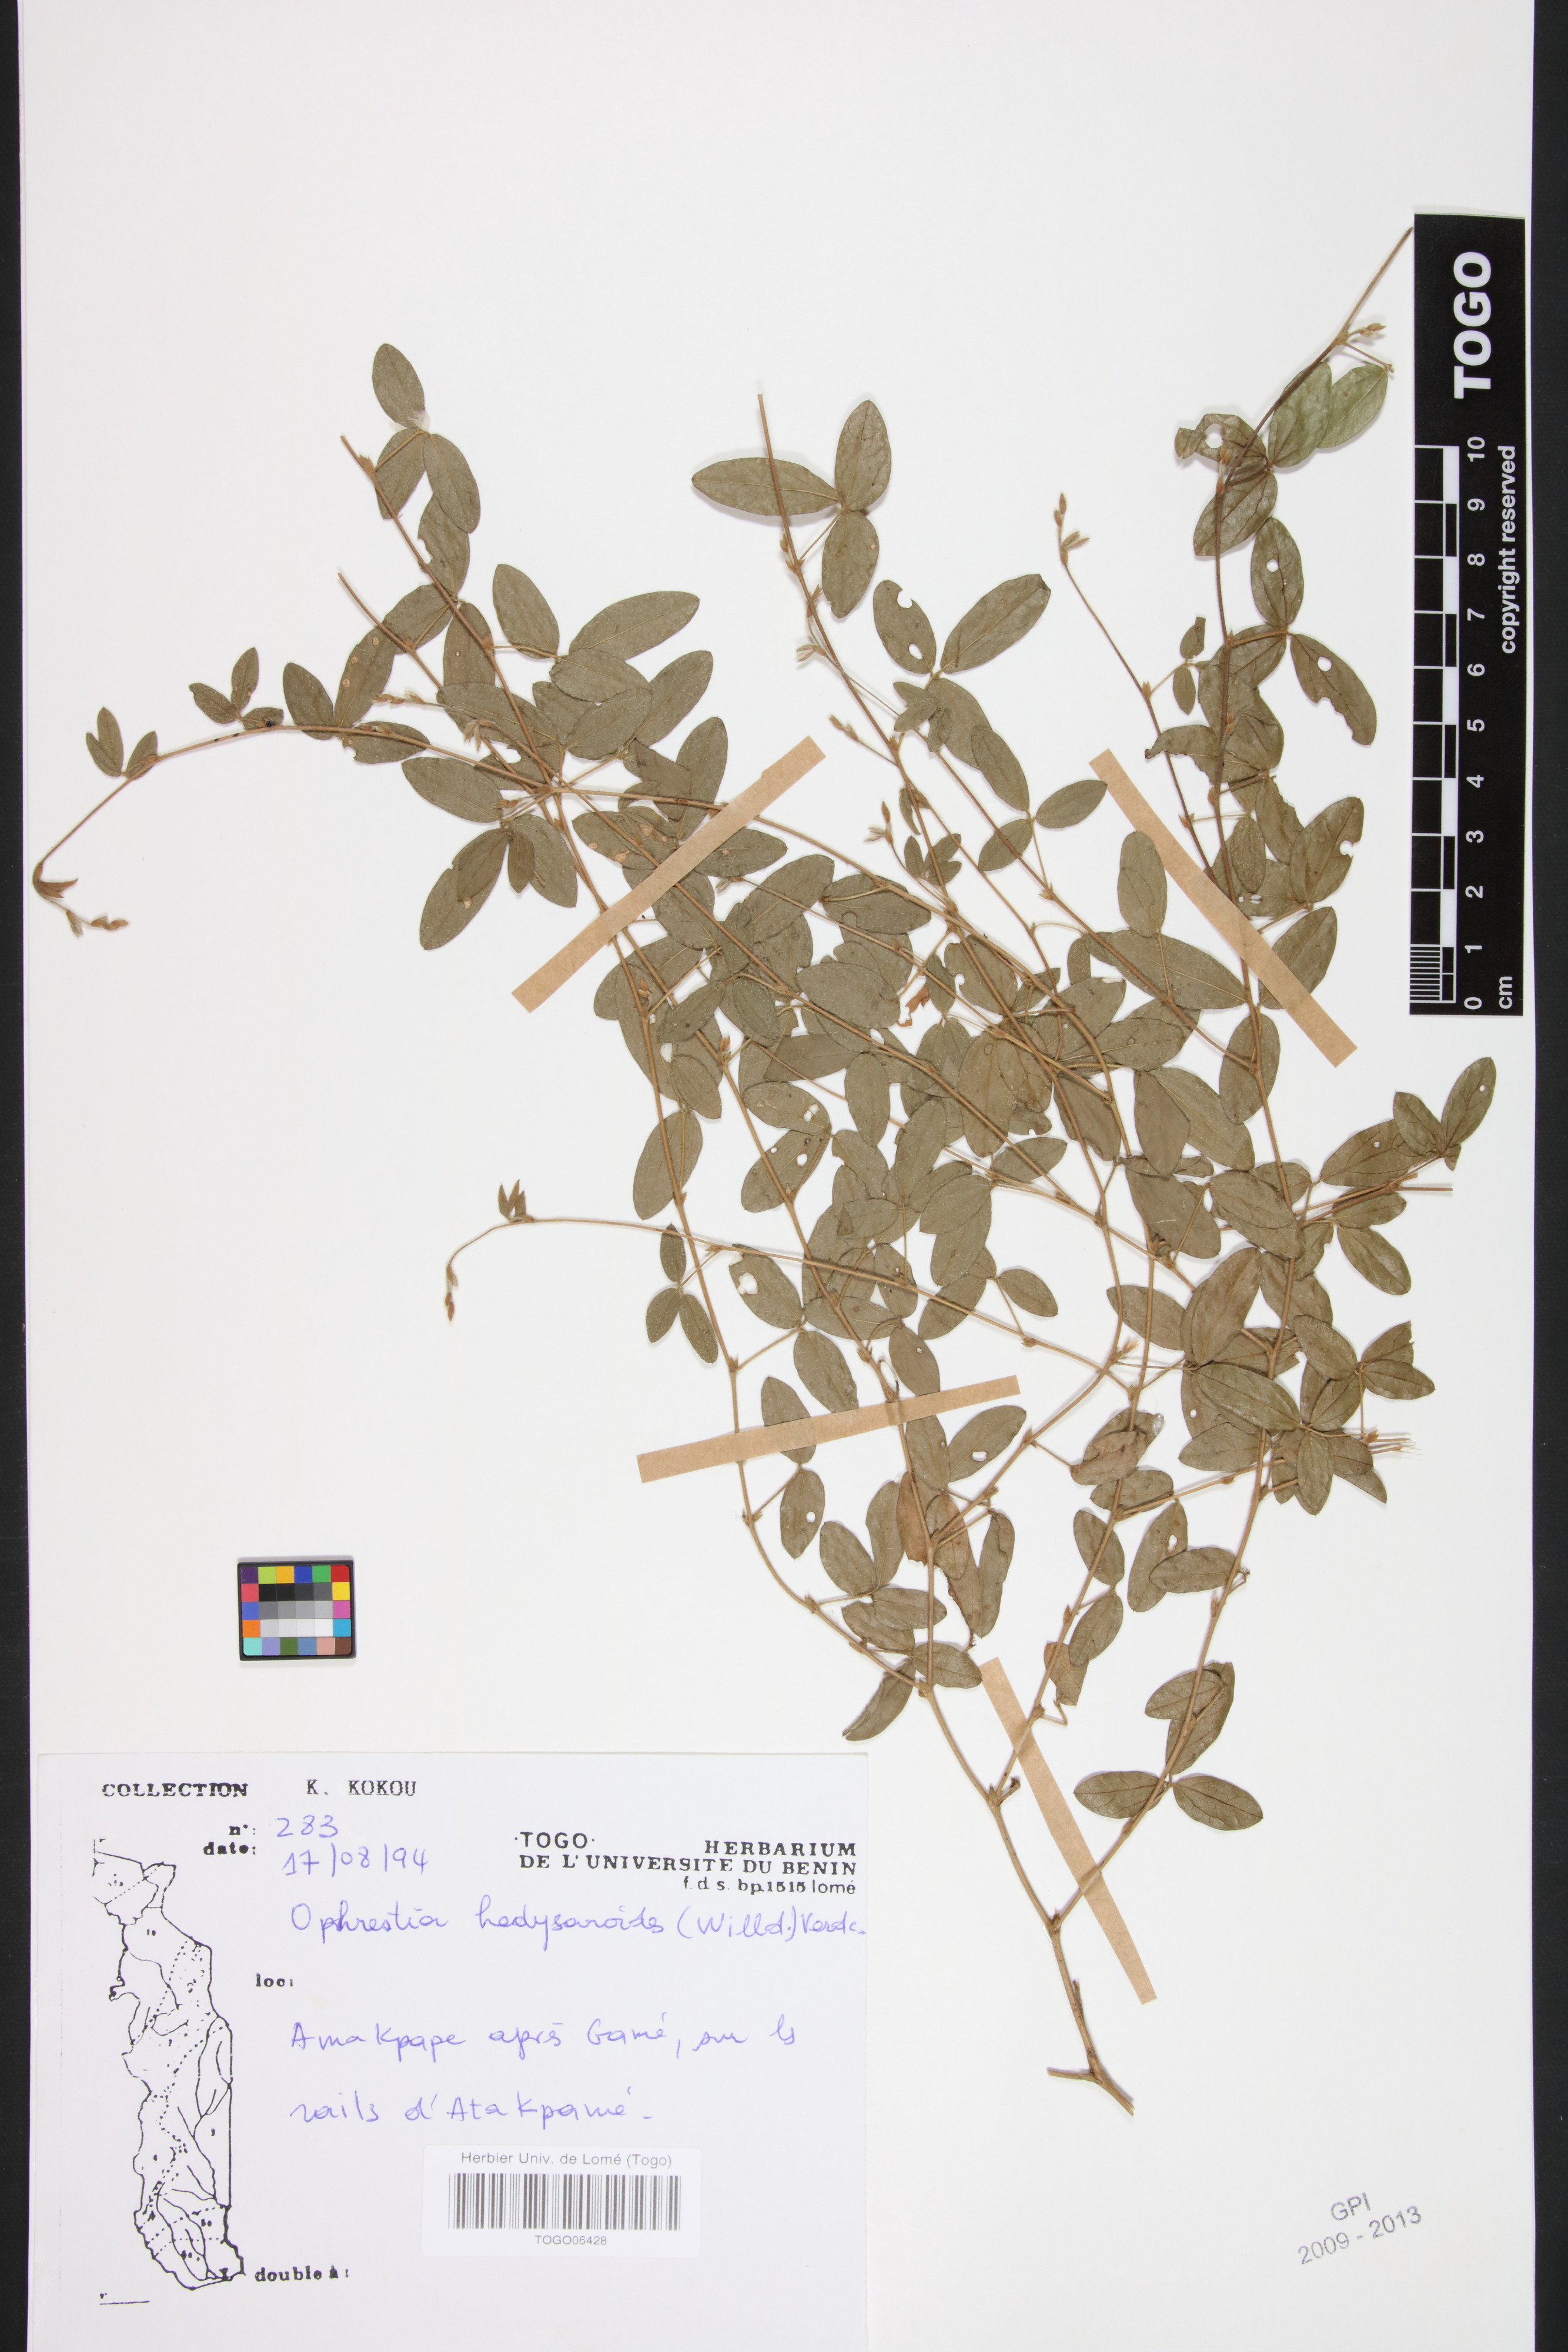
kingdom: Plantae
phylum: Tracheophyta
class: Magnoliopsida
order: Fabales
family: Fabaceae
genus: Ophrestia
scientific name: Ophrestia hedysaroides
